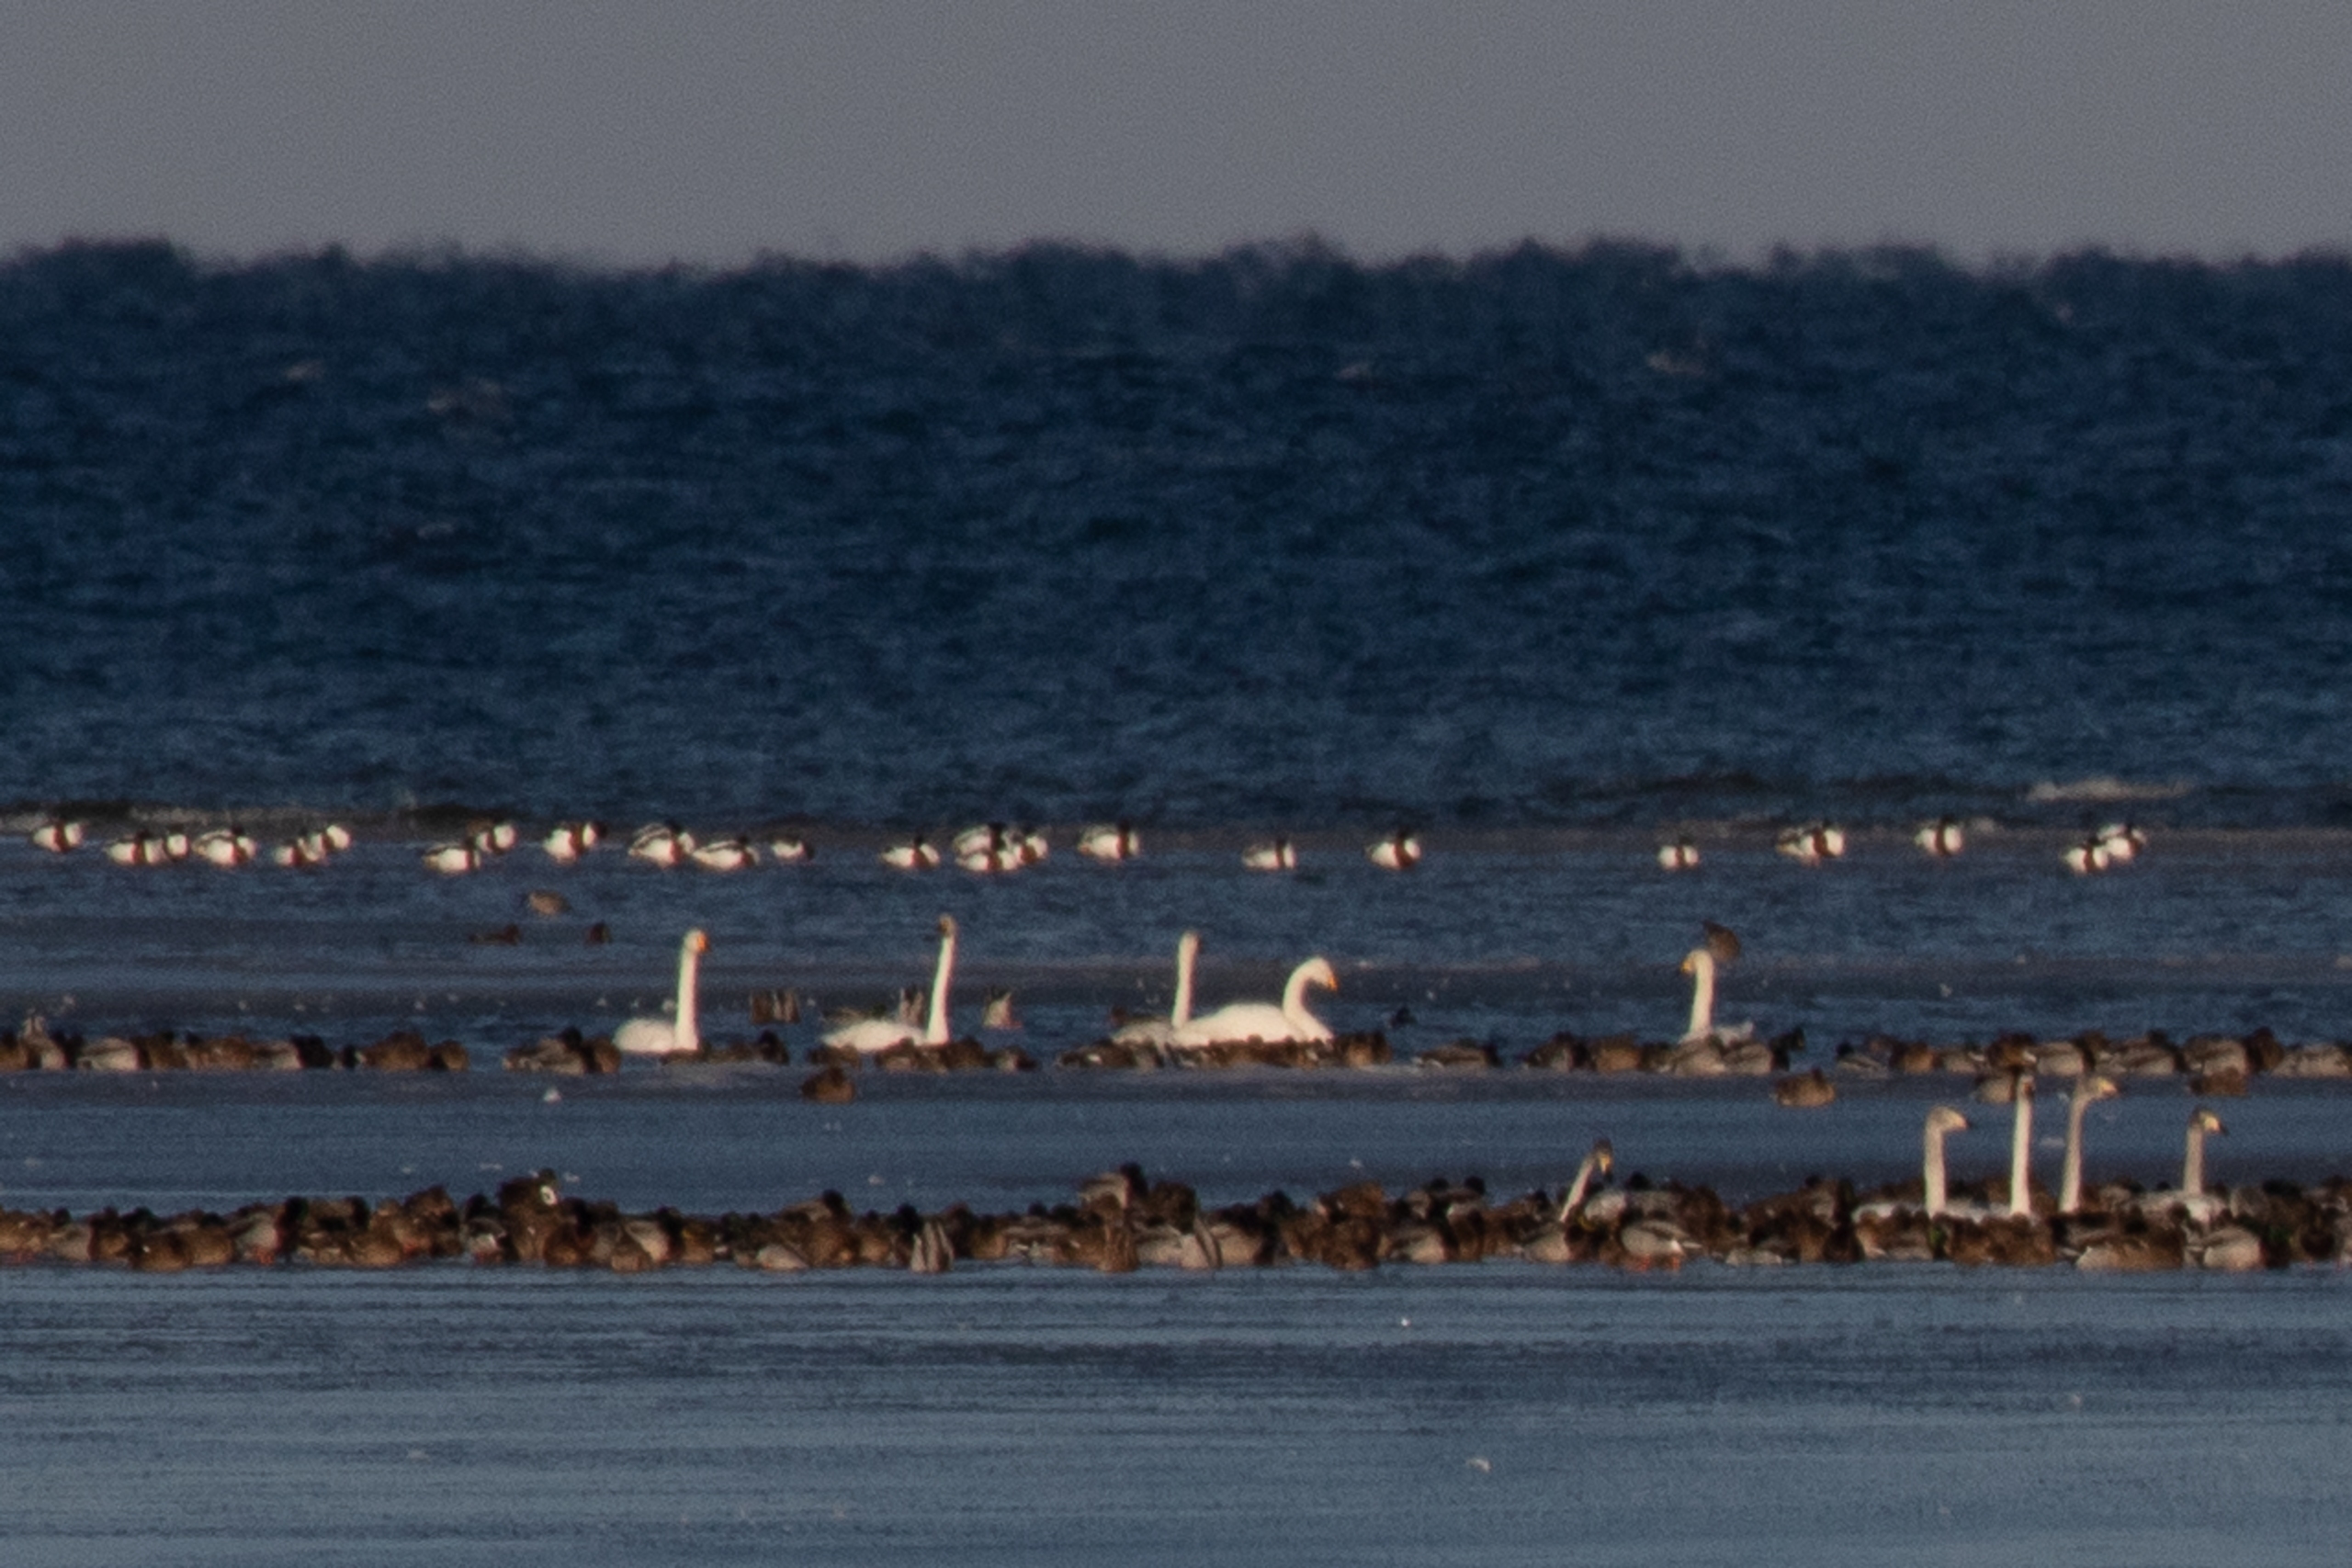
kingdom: Animalia
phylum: Chordata
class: Aves
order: Anseriformes
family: Anatidae
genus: Tadorna
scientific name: Tadorna tadorna
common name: Gravand
